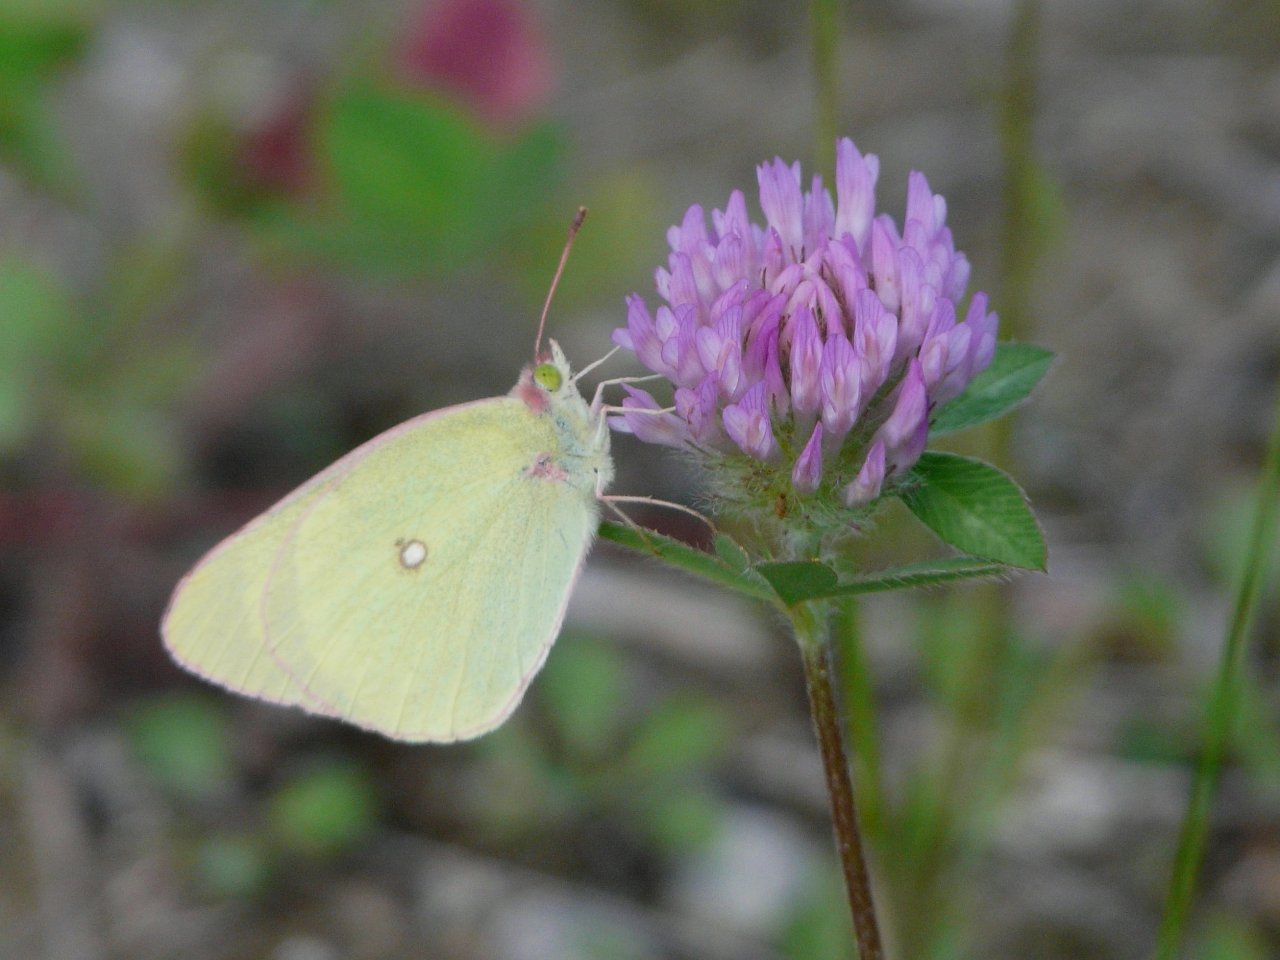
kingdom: Animalia
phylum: Arthropoda
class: Insecta
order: Lepidoptera
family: Pieridae
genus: Colias
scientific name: Colias interior
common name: Pink-edged Sulphur
